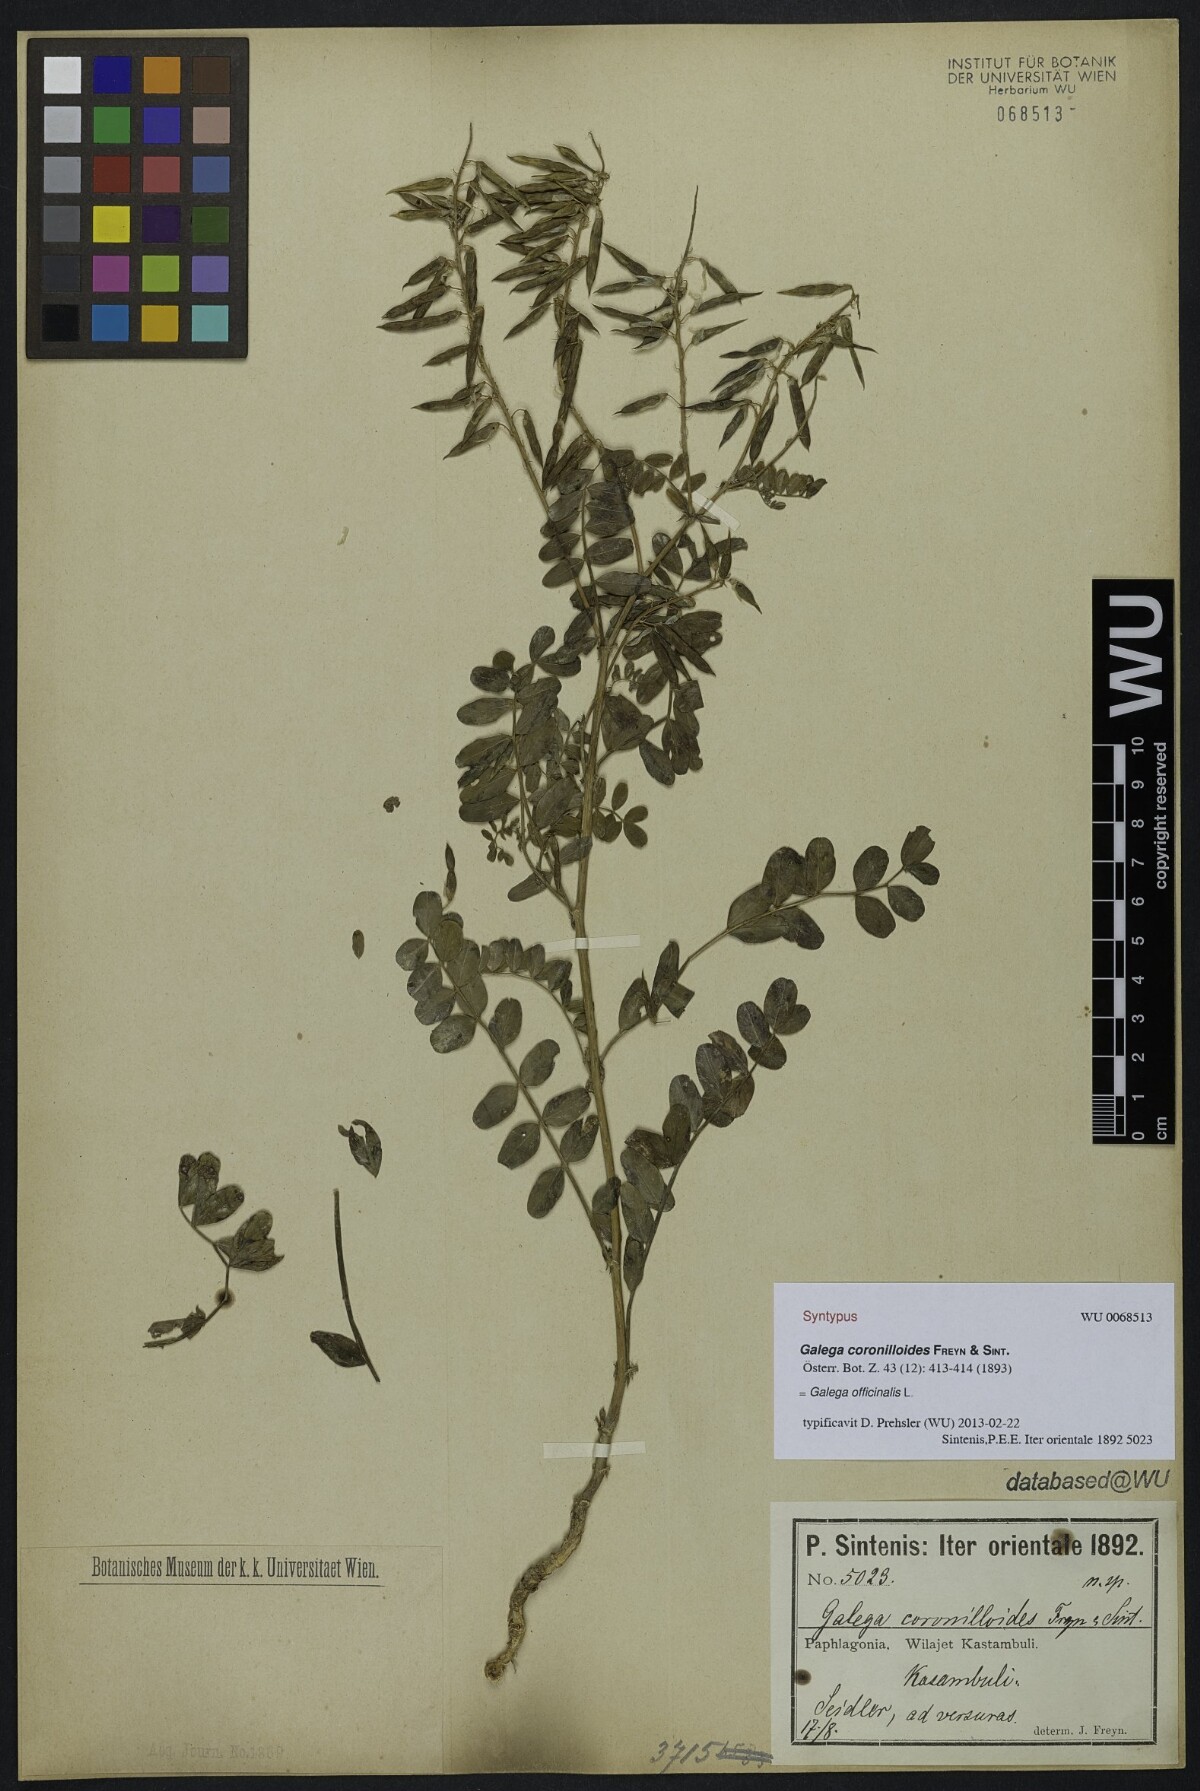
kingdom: Plantae
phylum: Tracheophyta
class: Magnoliopsida
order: Fabales
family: Fabaceae
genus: Galega
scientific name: Galega officinalis
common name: Goat's-rue
